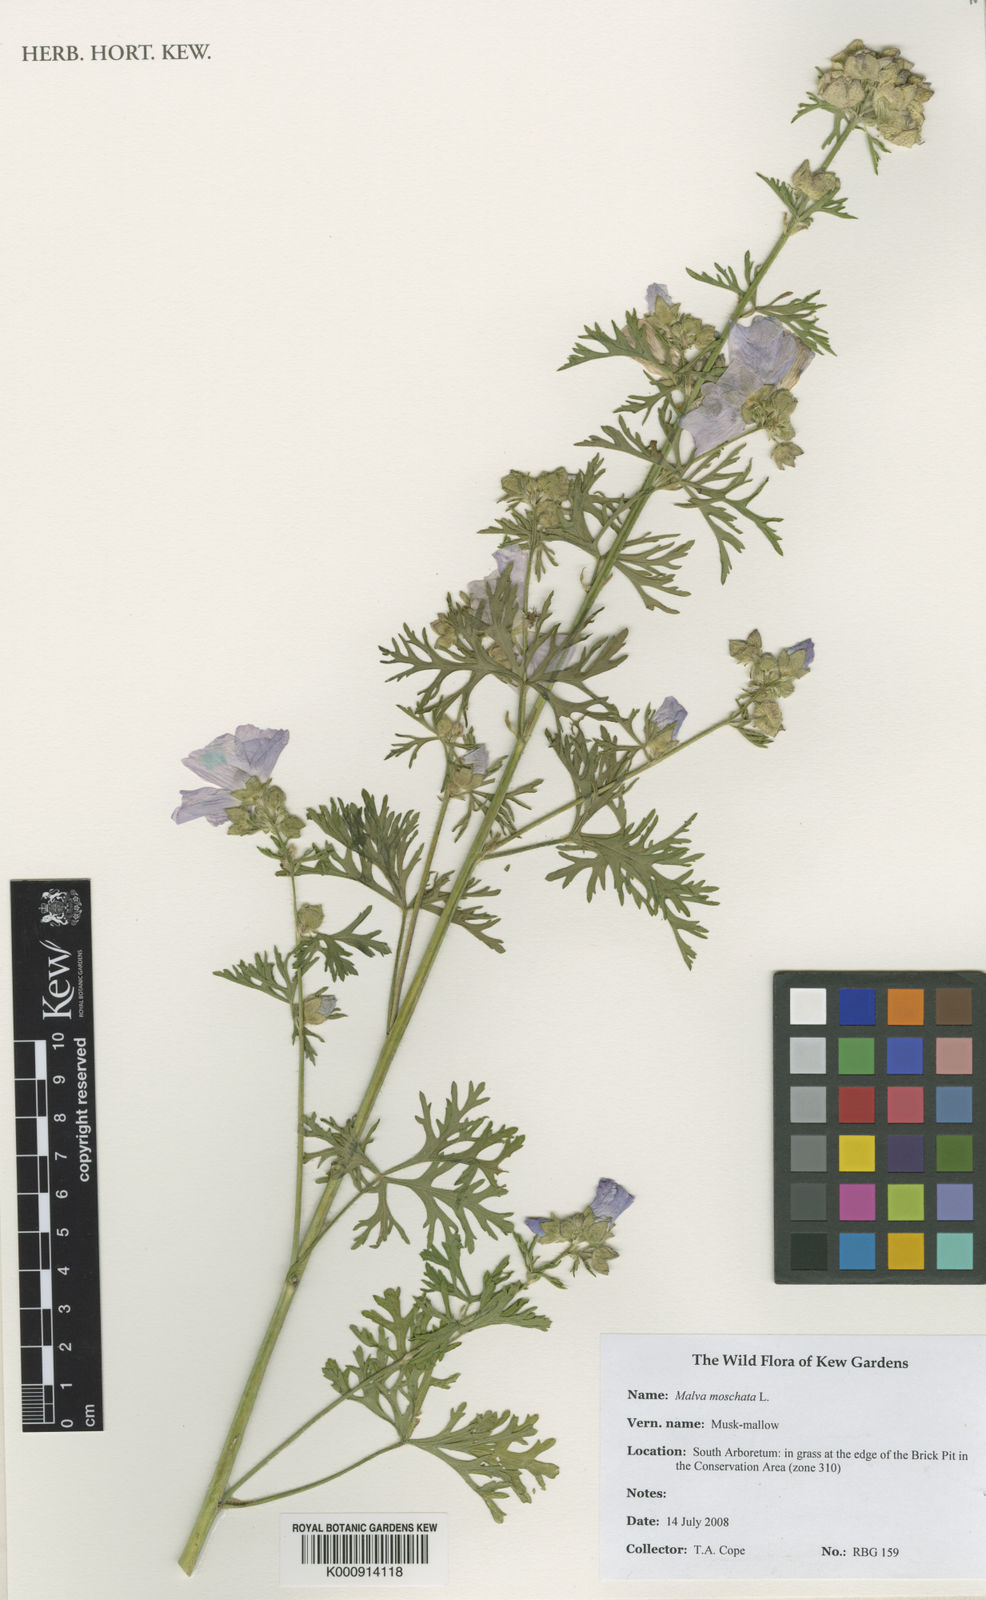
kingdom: Plantae
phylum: Tracheophyta
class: Magnoliopsida
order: Malvales
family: Malvaceae
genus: Malva
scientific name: Malva moschata
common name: Musk mallow
